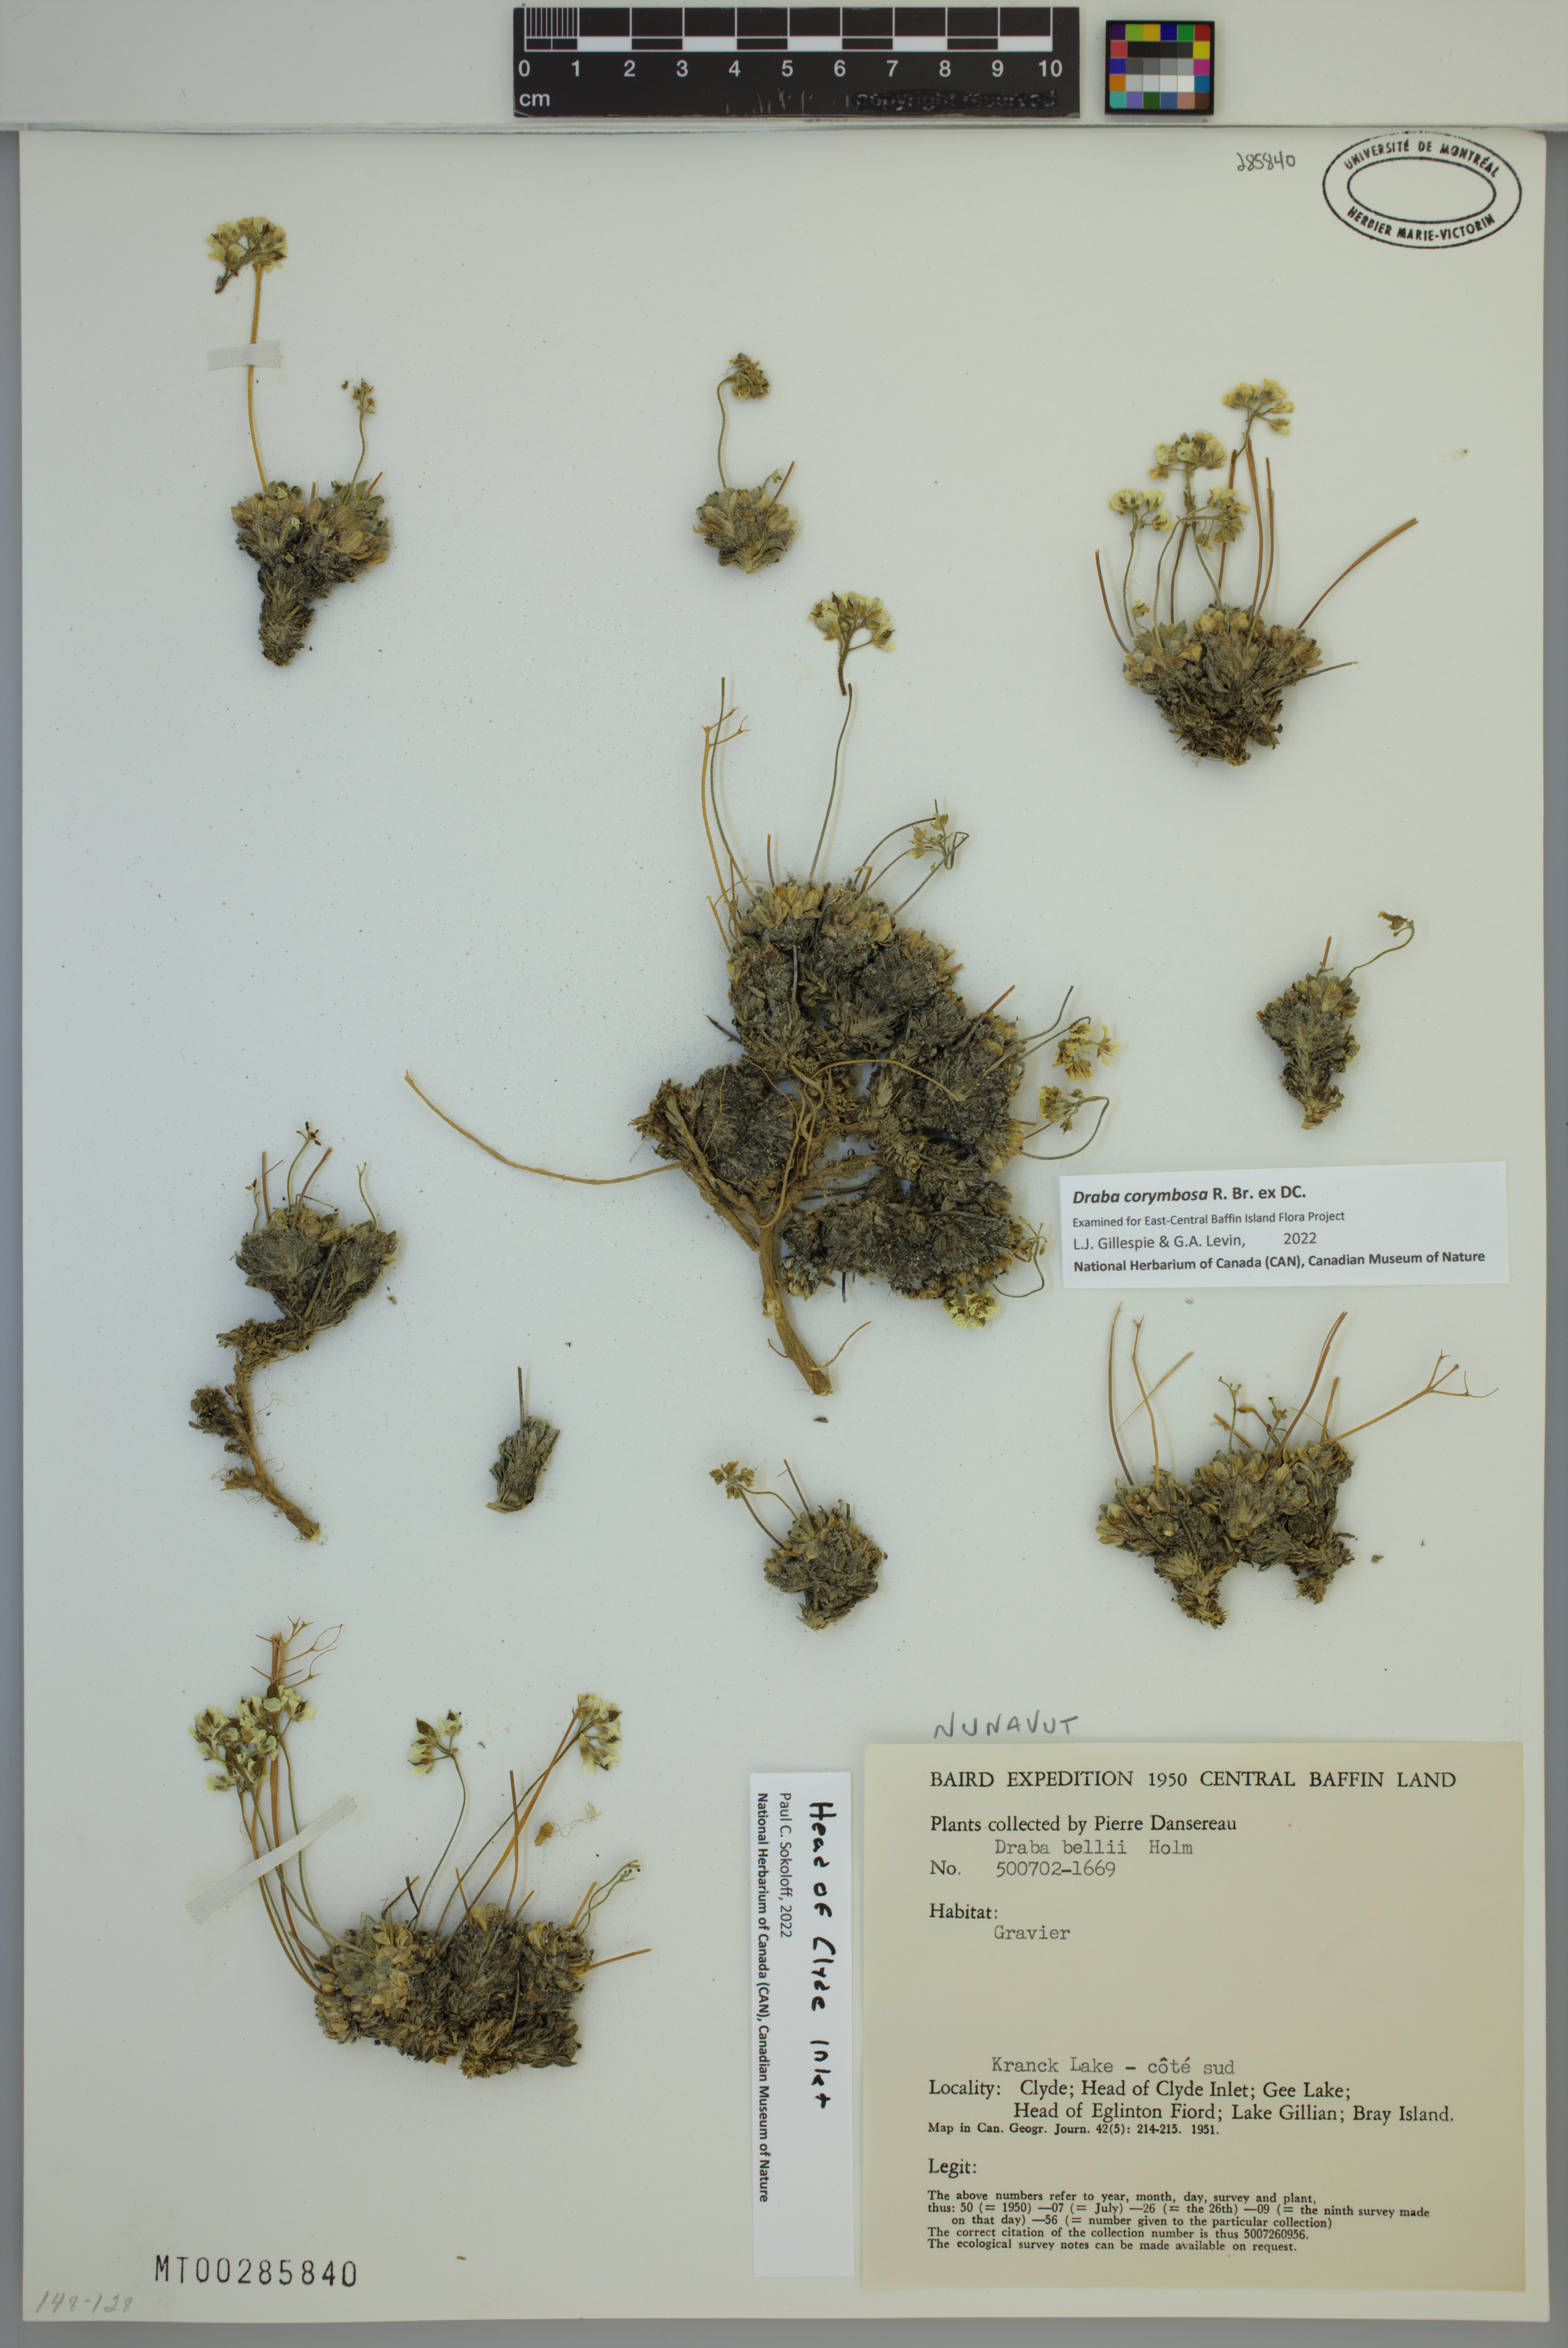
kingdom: Plantae
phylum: Tracheophyta
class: Magnoliopsida
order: Brassicales
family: Brassicaceae
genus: Draba
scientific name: Draba corymbosa
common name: Cushion whitlow-grass
